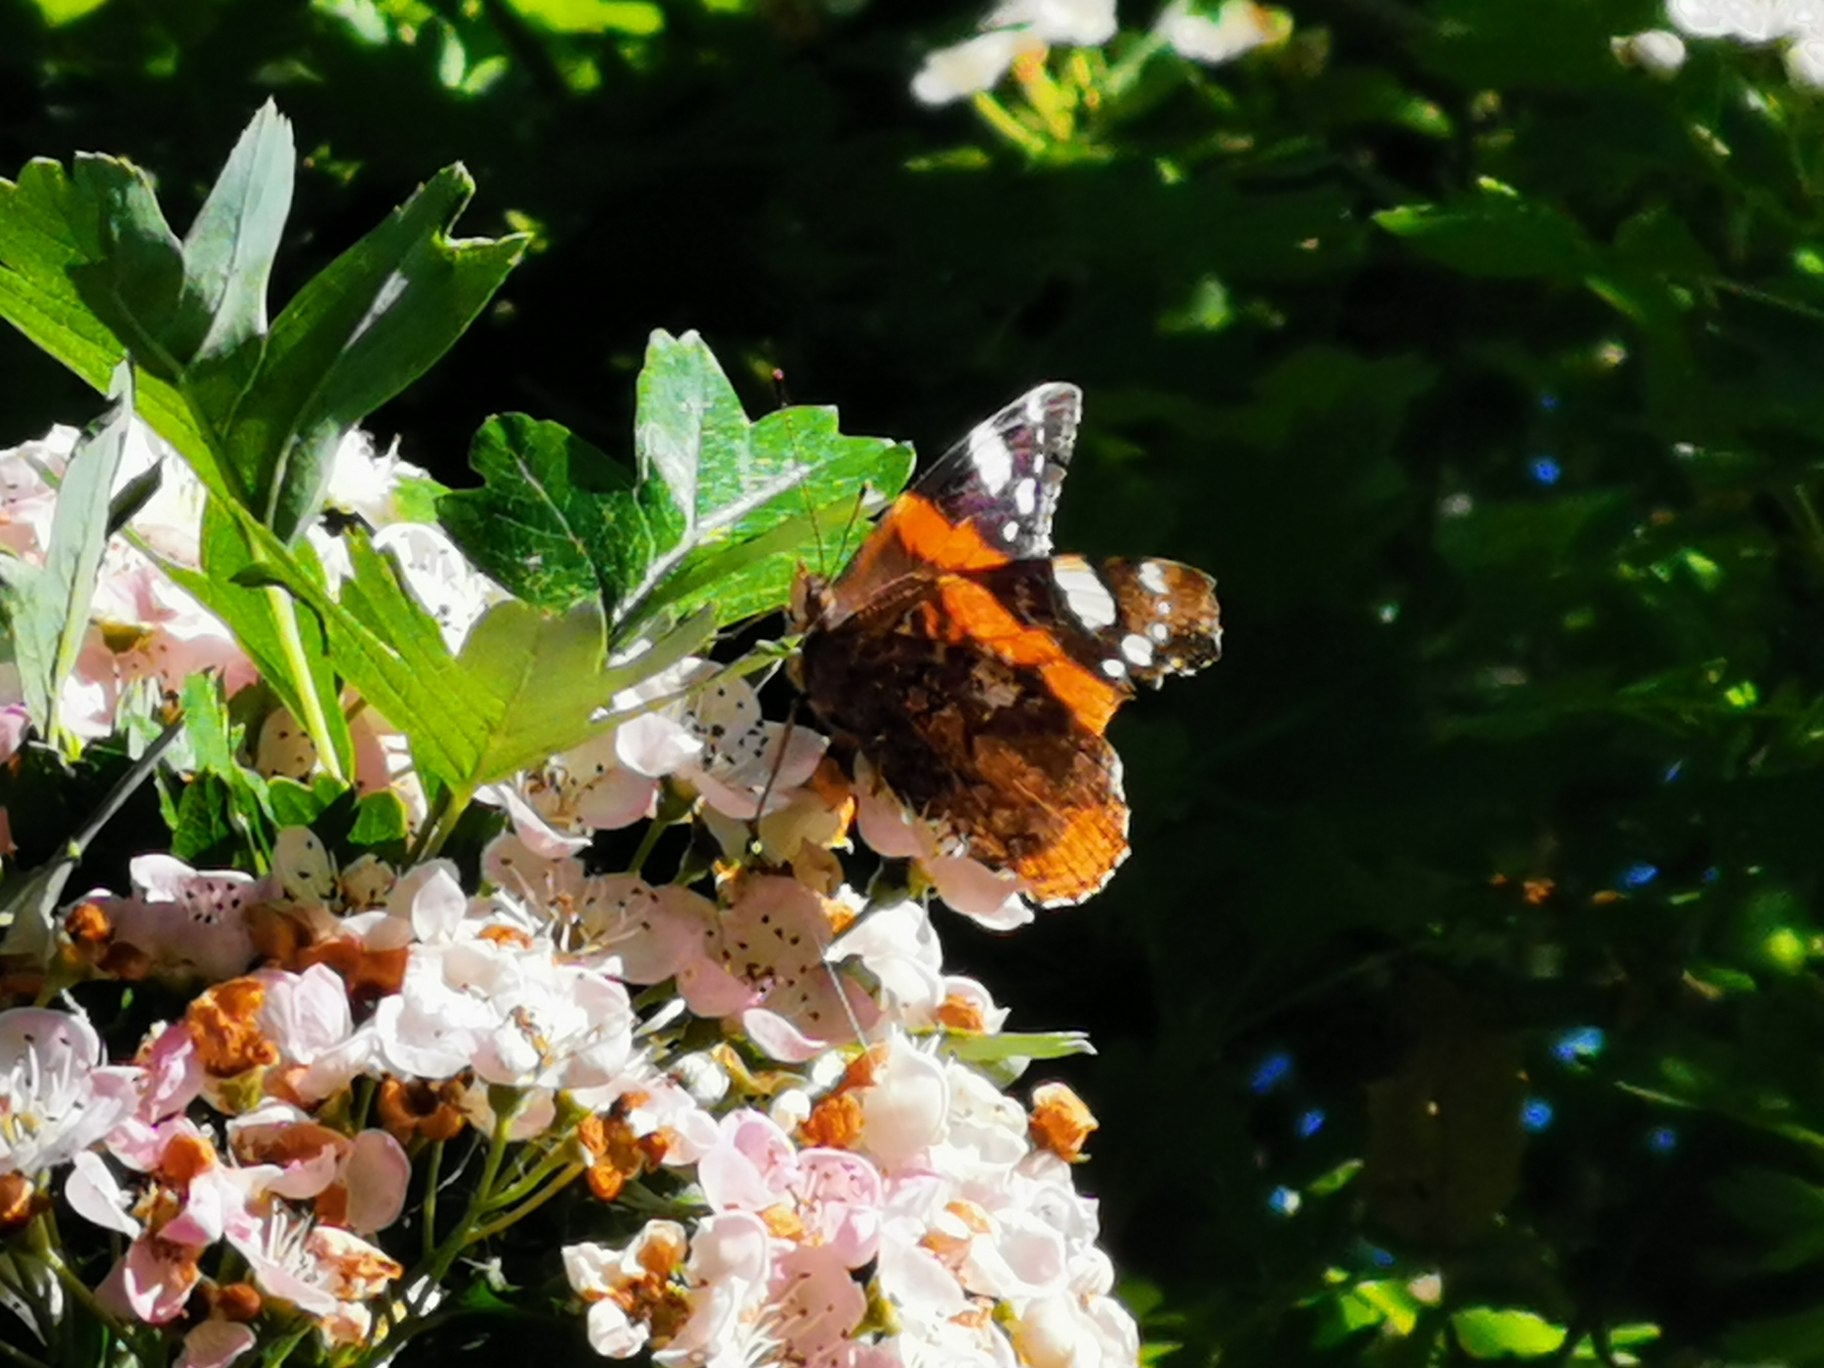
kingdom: Animalia
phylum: Arthropoda
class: Insecta
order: Lepidoptera
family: Nymphalidae
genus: Vanessa
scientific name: Vanessa atalanta
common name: Admiral
